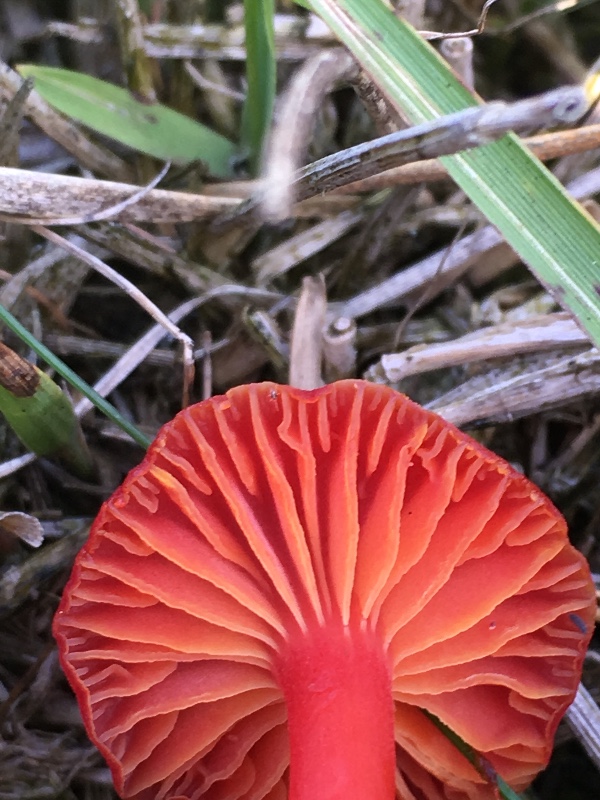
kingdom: Fungi
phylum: Basidiomycota
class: Agaricomycetes
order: Agaricales
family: Hygrophoraceae
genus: Hygrocybe
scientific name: Hygrocybe
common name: vokshat
